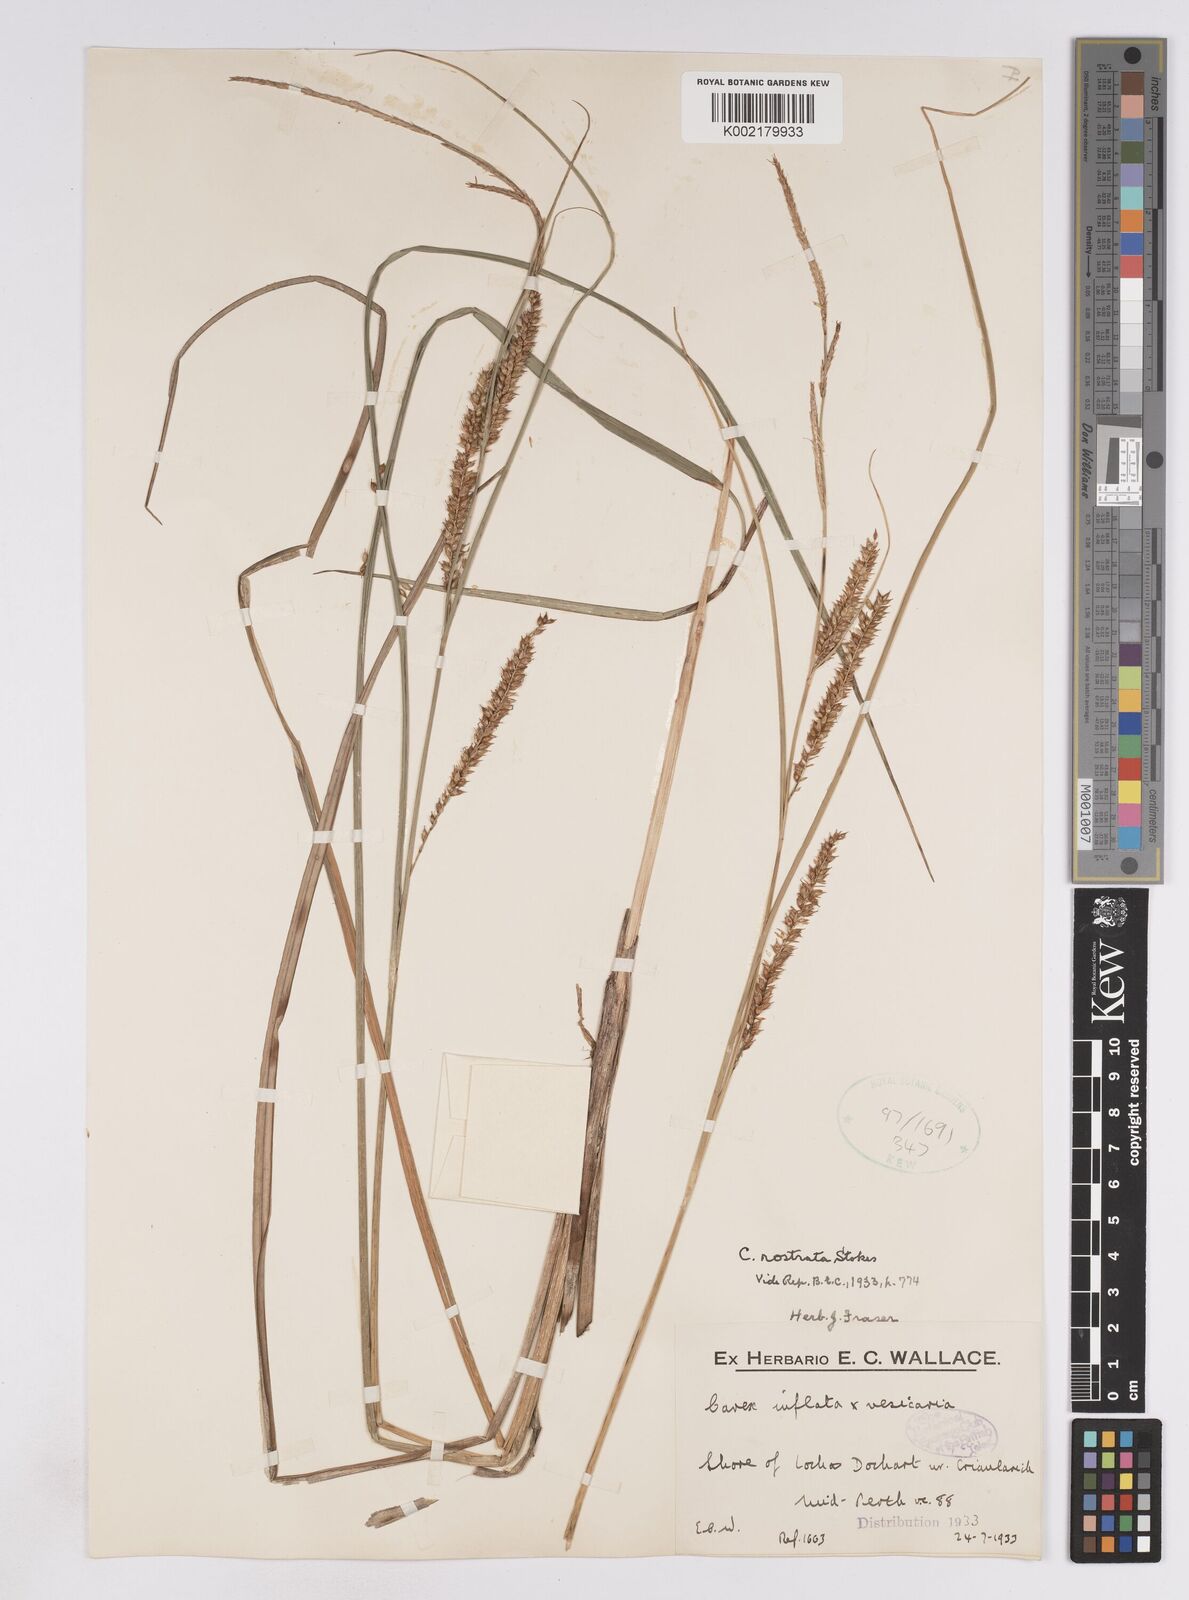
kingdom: Plantae
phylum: Tracheophyta
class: Liliopsida
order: Poales
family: Cyperaceae
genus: Carex
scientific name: Carex rostrata
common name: Bottle sedge
